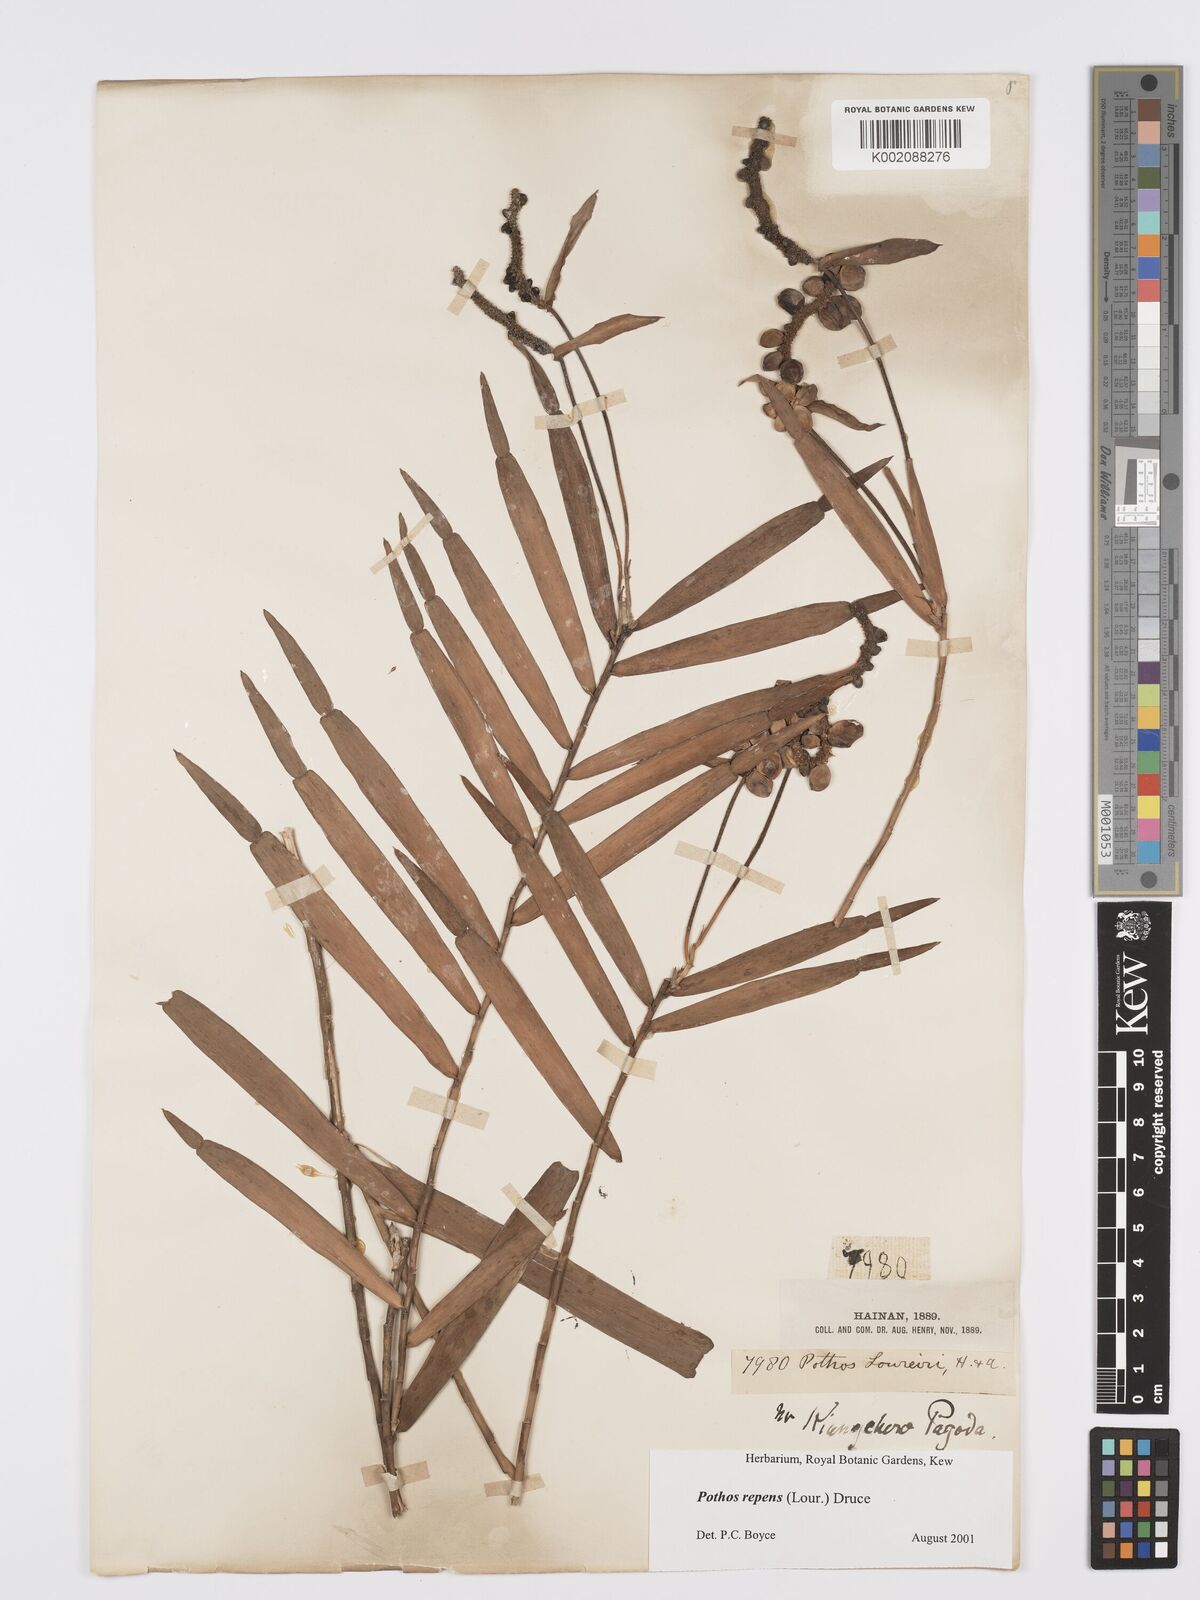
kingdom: Plantae
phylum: Tracheophyta
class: Liliopsida
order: Alismatales
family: Araceae
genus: Pothos
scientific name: Pothos repens
